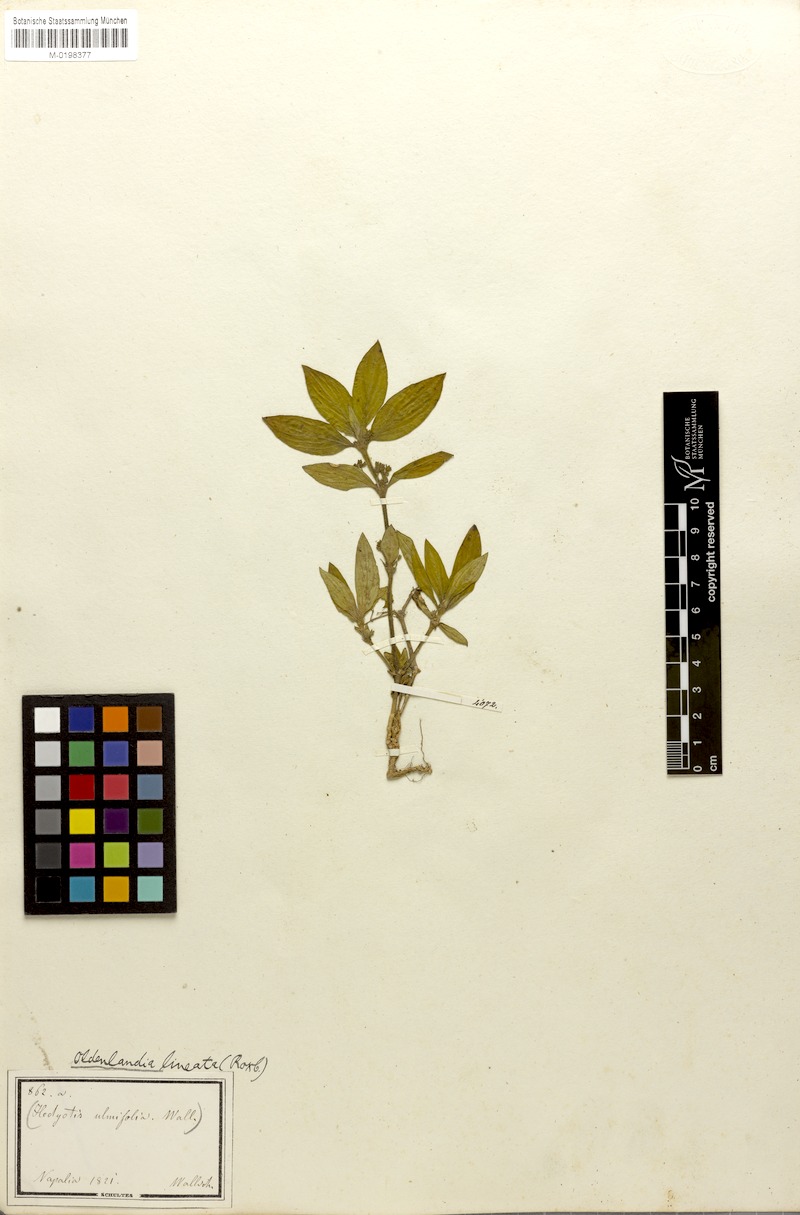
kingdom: Plantae
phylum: Tracheophyta
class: Magnoliopsida
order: Gentianales
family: Rubiaceae
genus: Exallage
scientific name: Exallage ulmifolia
